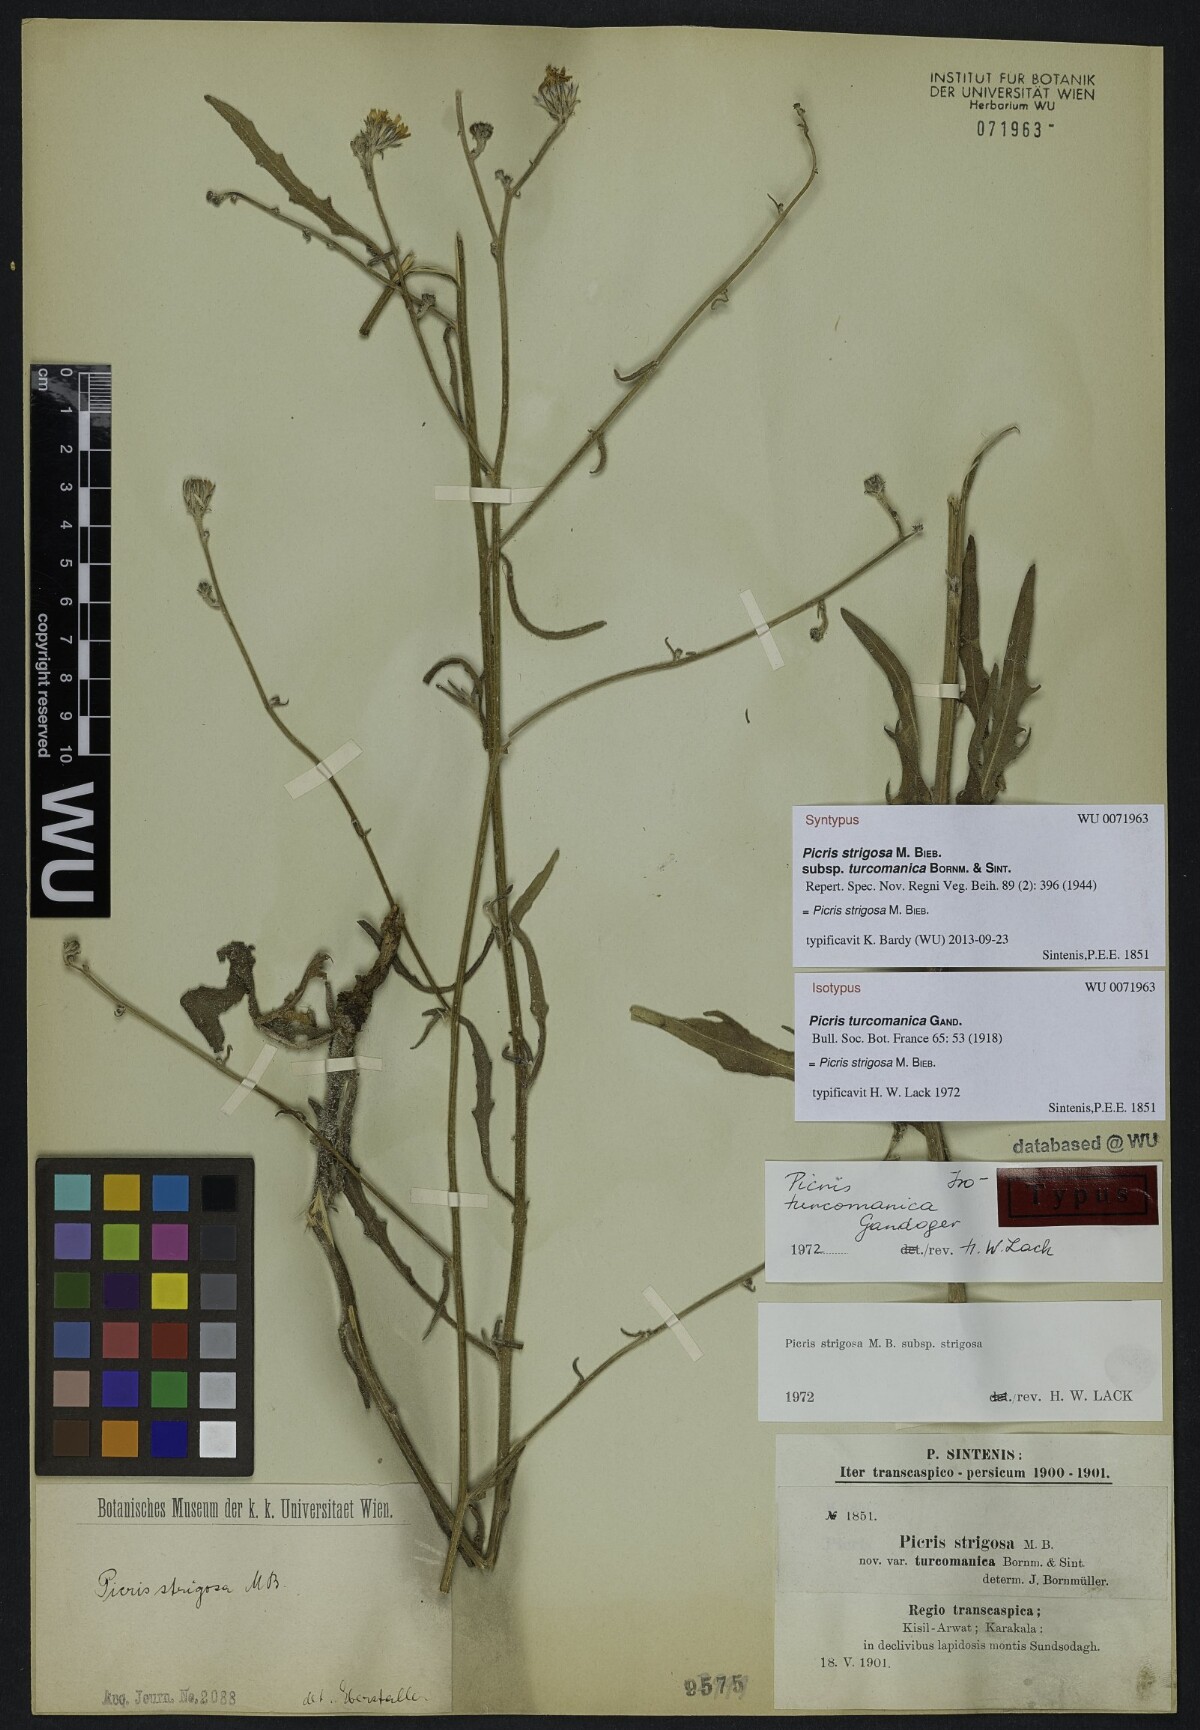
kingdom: Plantae
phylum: Tracheophyta
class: Magnoliopsida
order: Asterales
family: Asteraceae
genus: Picris
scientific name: Picris strigosa
